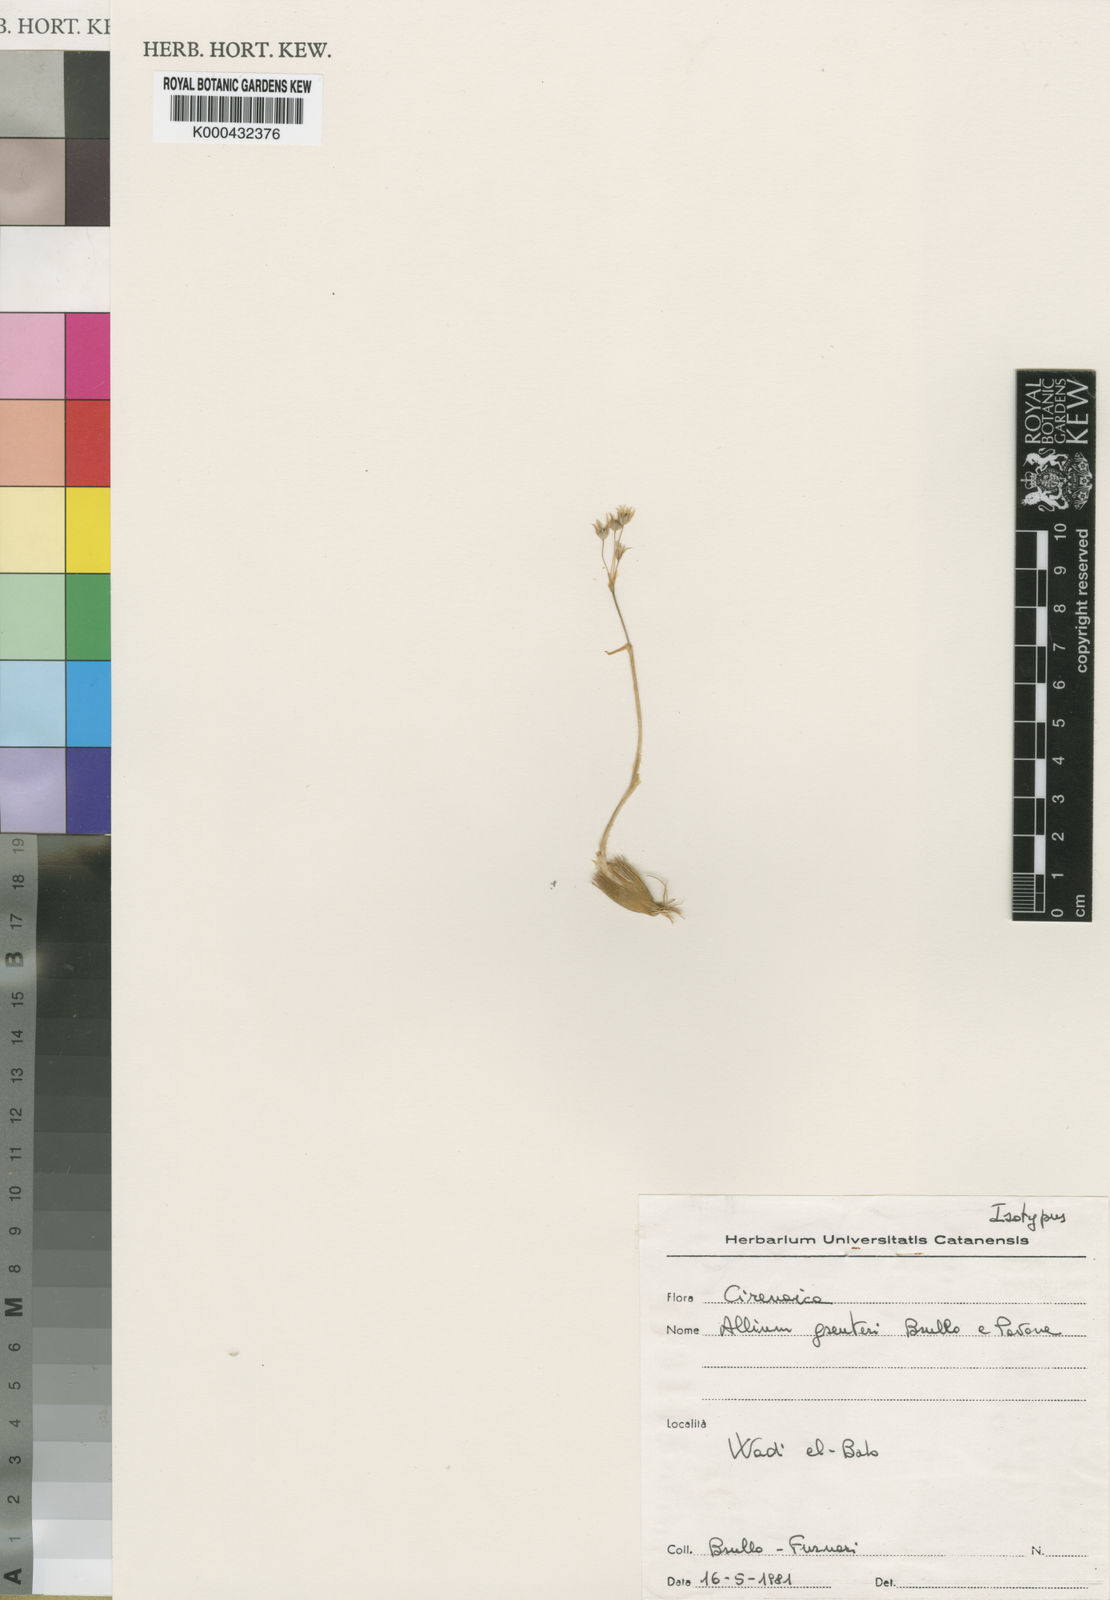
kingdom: Plantae
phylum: Tracheophyta
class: Liliopsida
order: Asparagales
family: Amaryllidaceae
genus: Allium
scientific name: Allium greuteri
